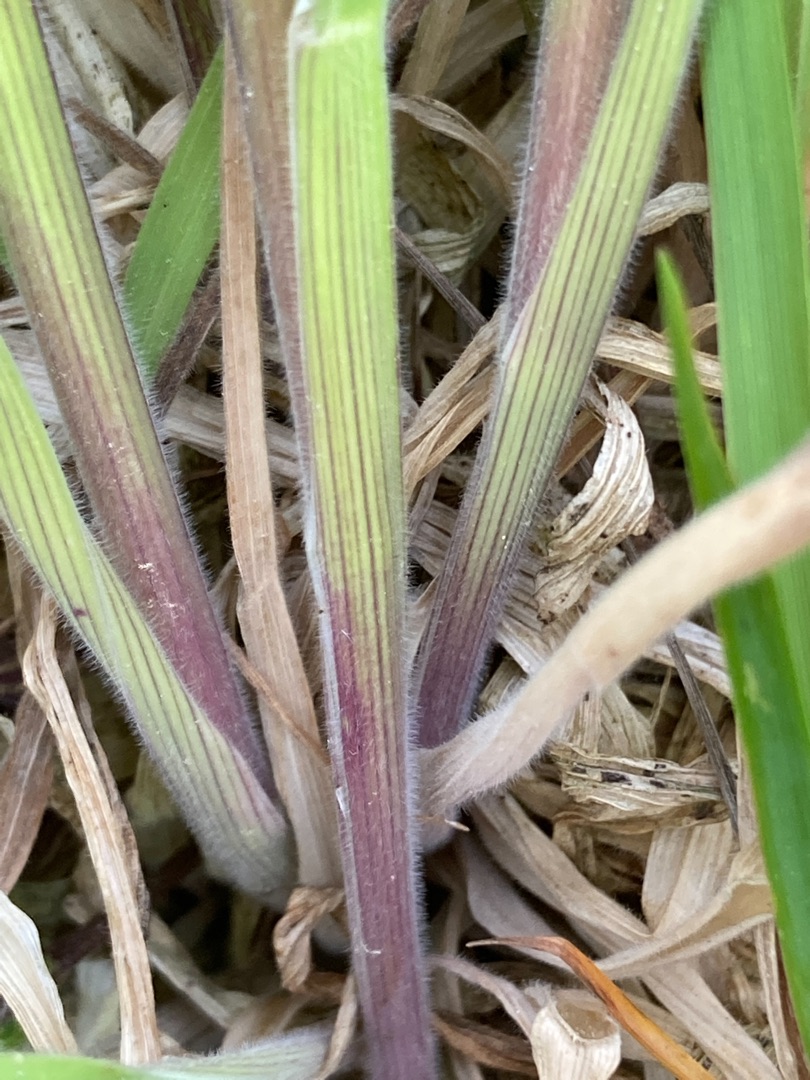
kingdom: Plantae
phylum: Tracheophyta
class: Liliopsida
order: Poales
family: Poaceae
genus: Holcus
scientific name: Holcus lanatus
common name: Fløjlsgræs
